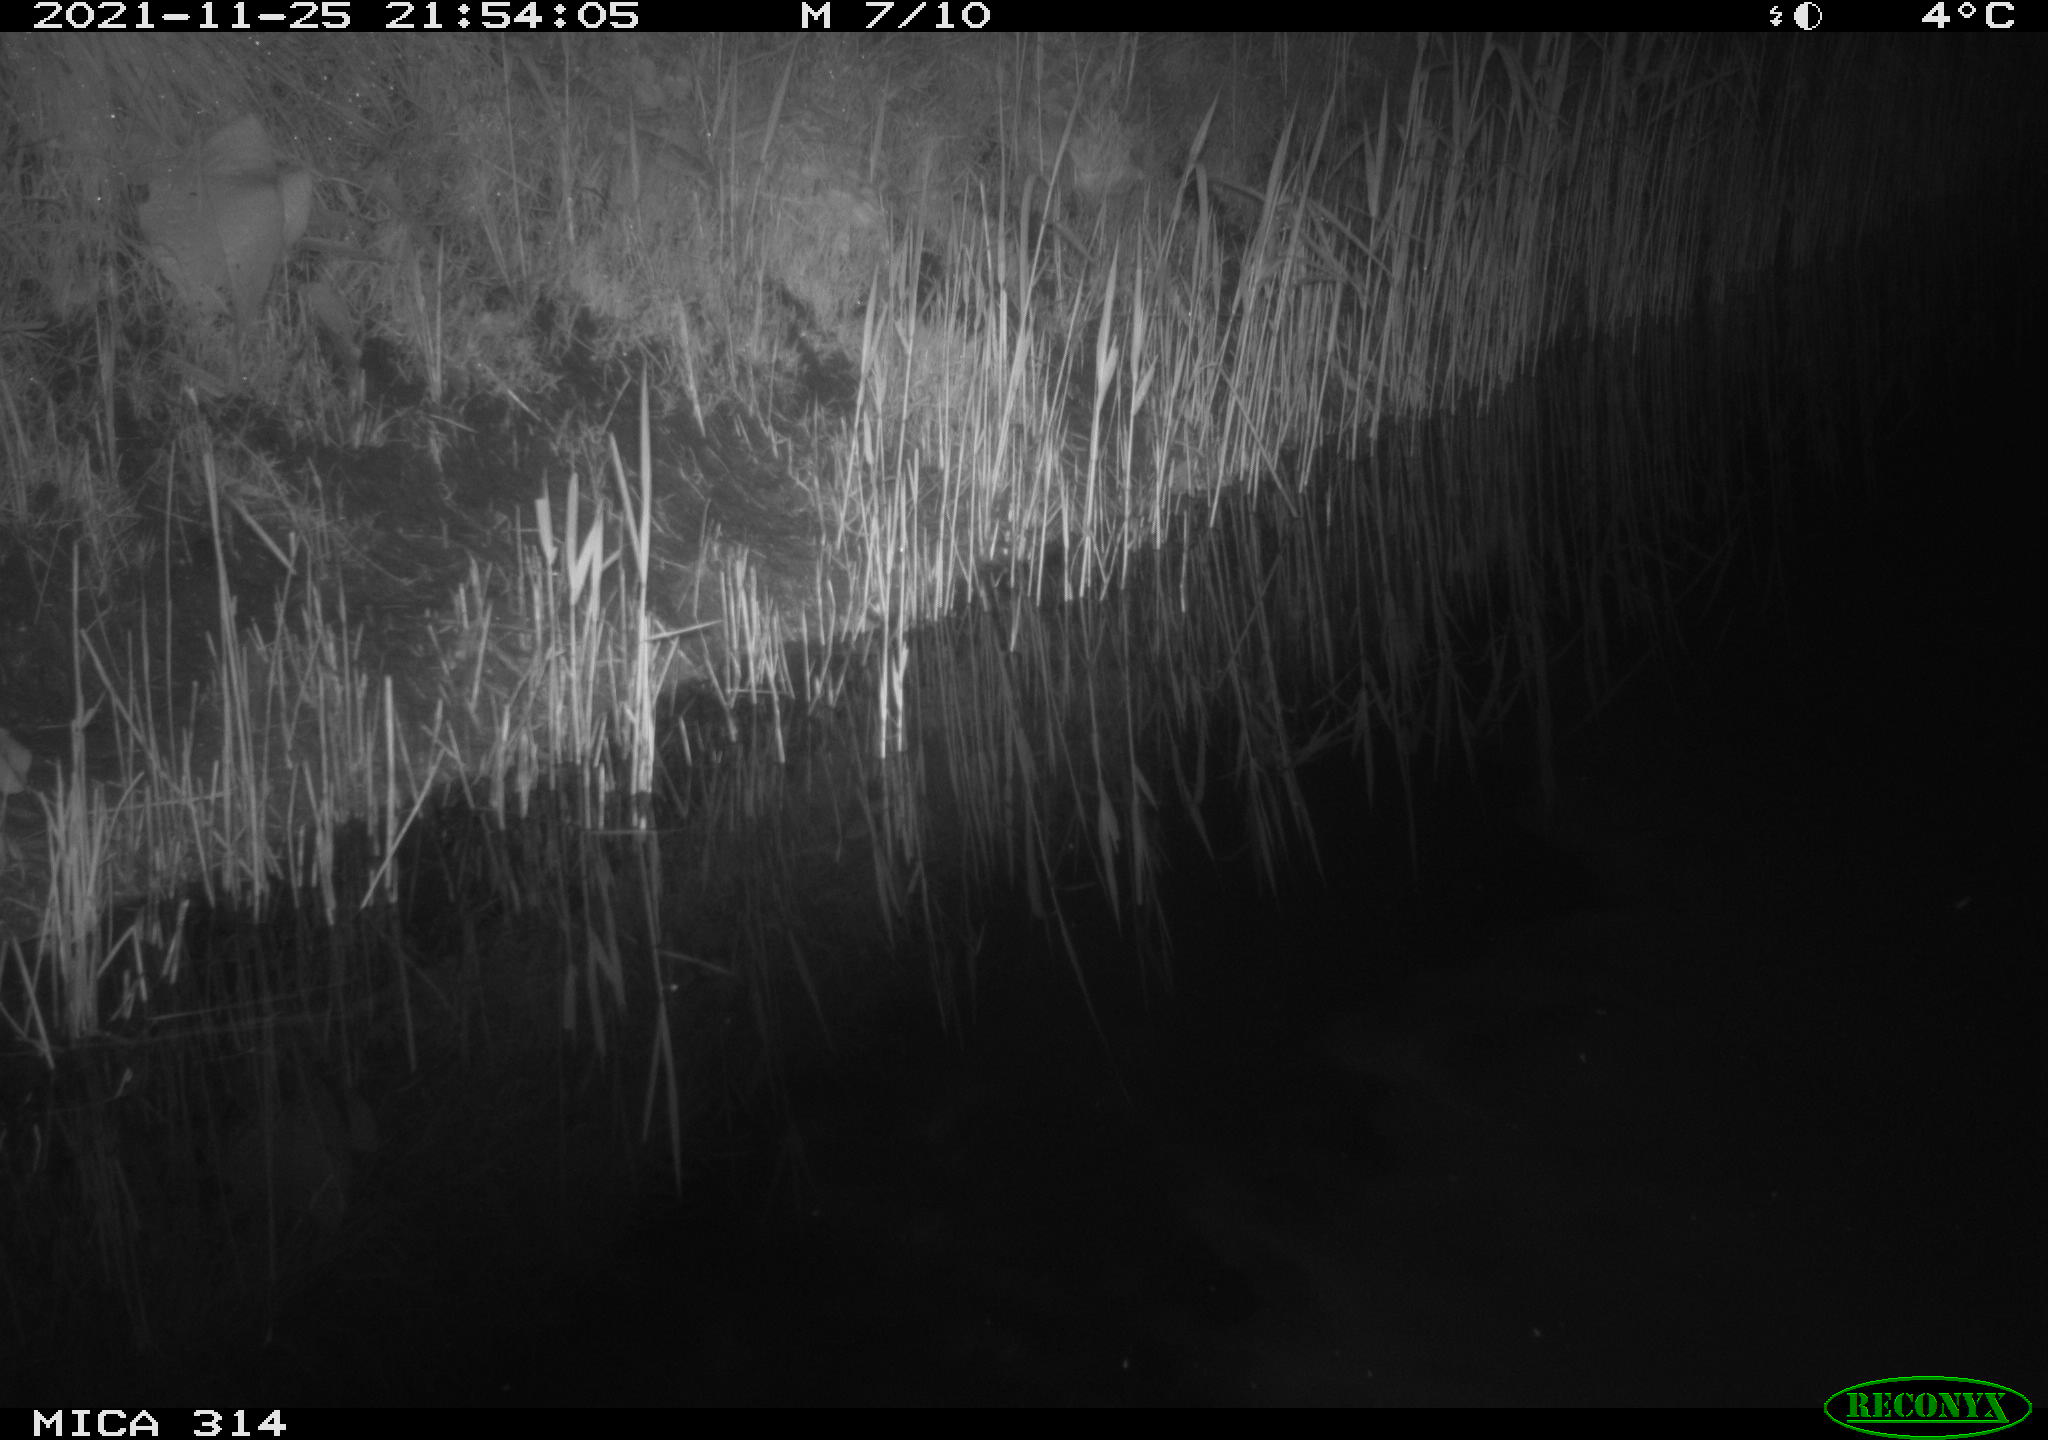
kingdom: Animalia
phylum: Chordata
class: Mammalia
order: Rodentia
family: Muridae
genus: Rattus
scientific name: Rattus norvegicus
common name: Brown rat
